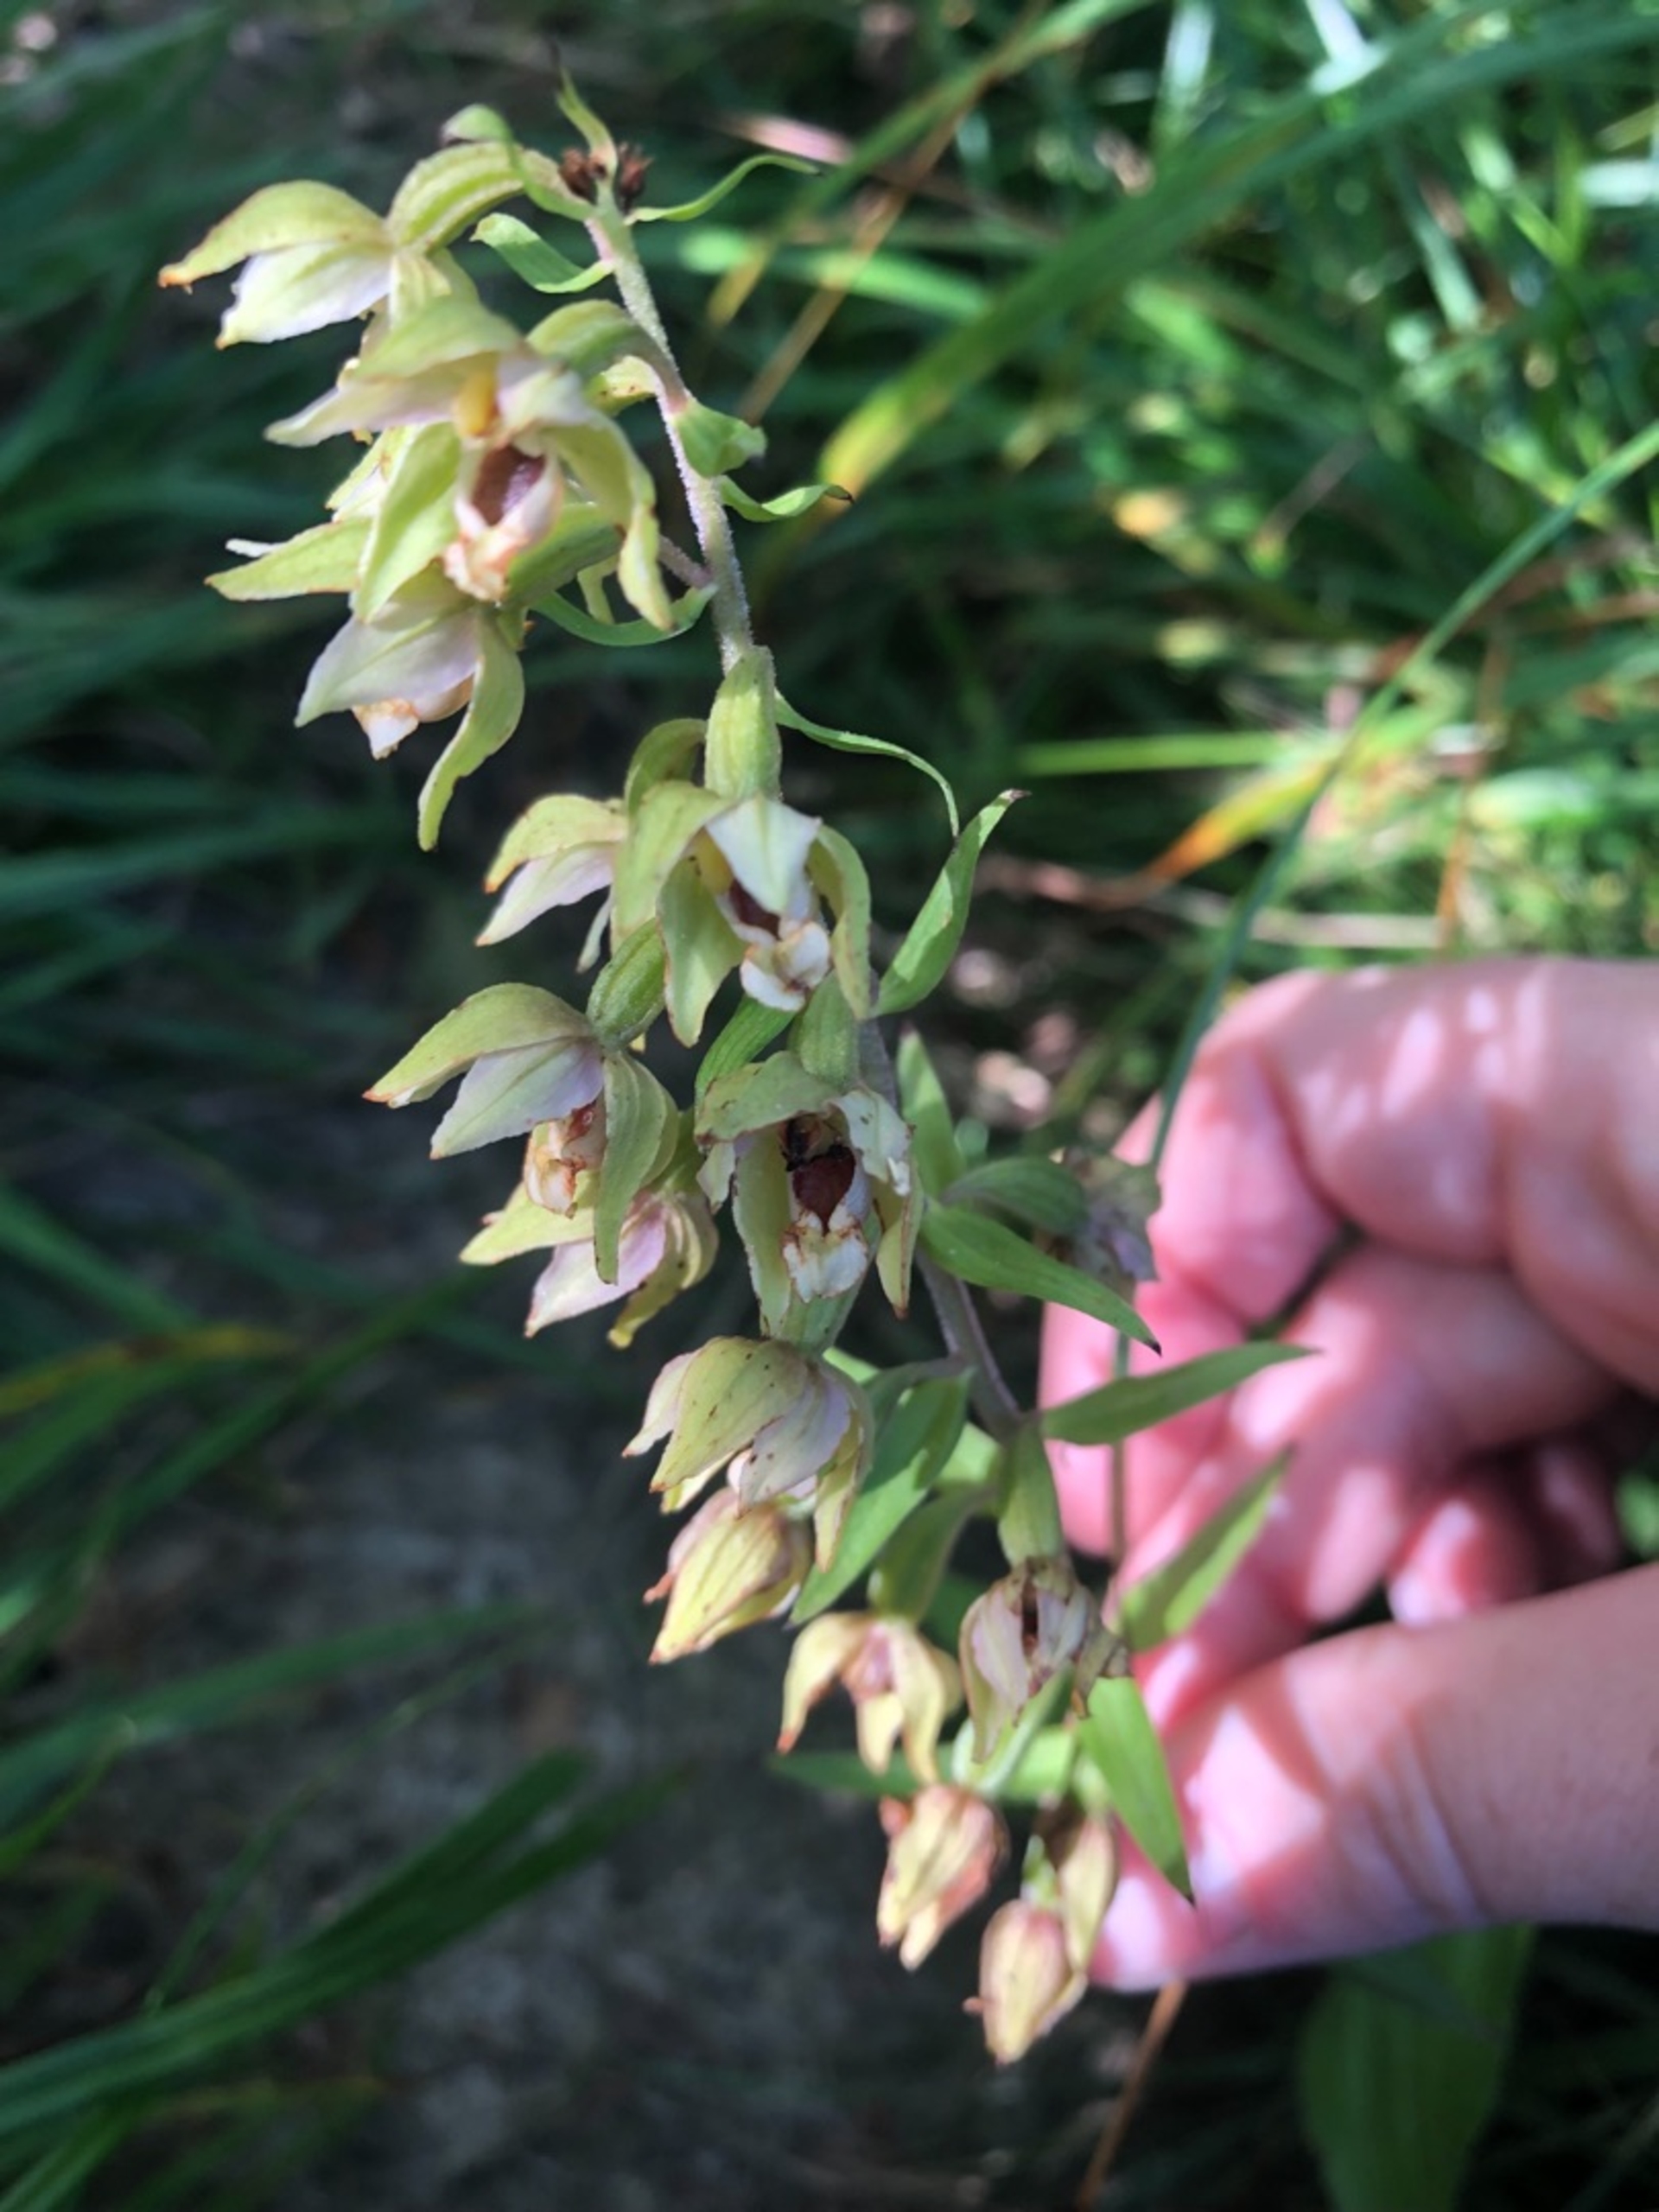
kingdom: Plantae
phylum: Tracheophyta
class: Liliopsida
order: Asparagales
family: Orchidaceae
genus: Epipactis
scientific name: Epipactis helleborine
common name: Skov-hullæbe
